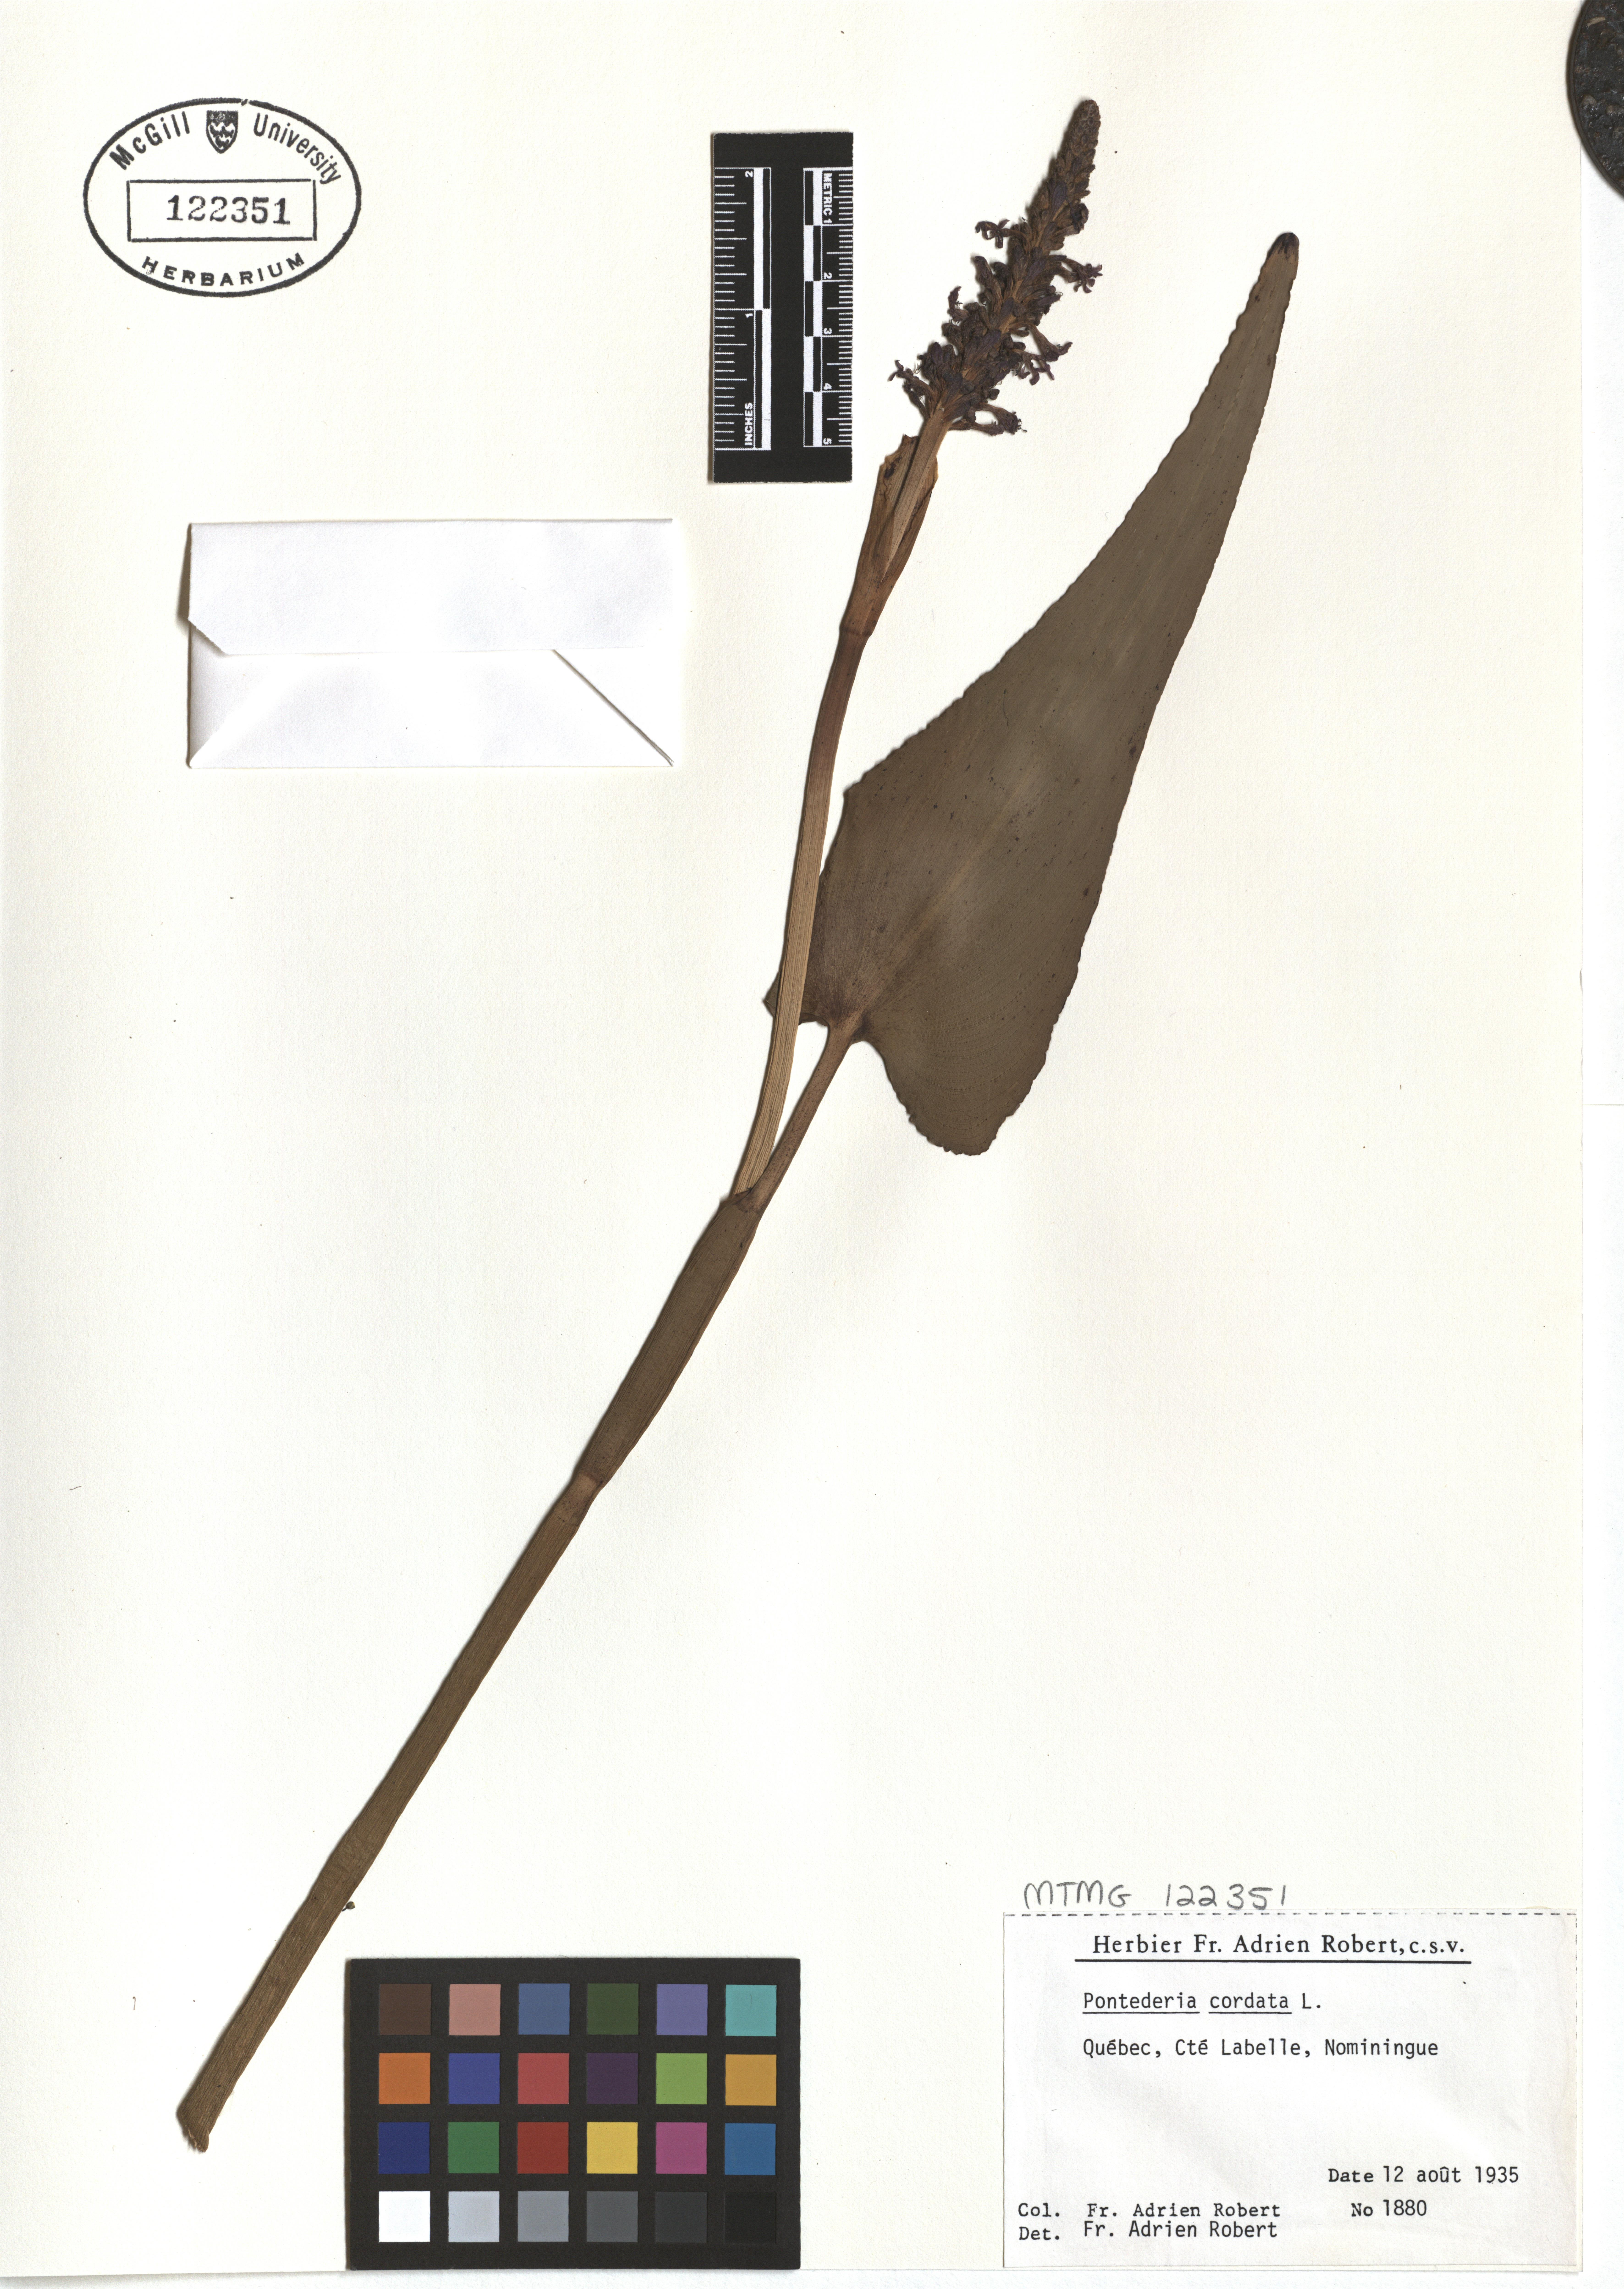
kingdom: Plantae
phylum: Tracheophyta
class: Liliopsida
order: Commelinales
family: Pontederiaceae
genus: Pontederia
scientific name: Pontederia cordata
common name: Pickerelweed
